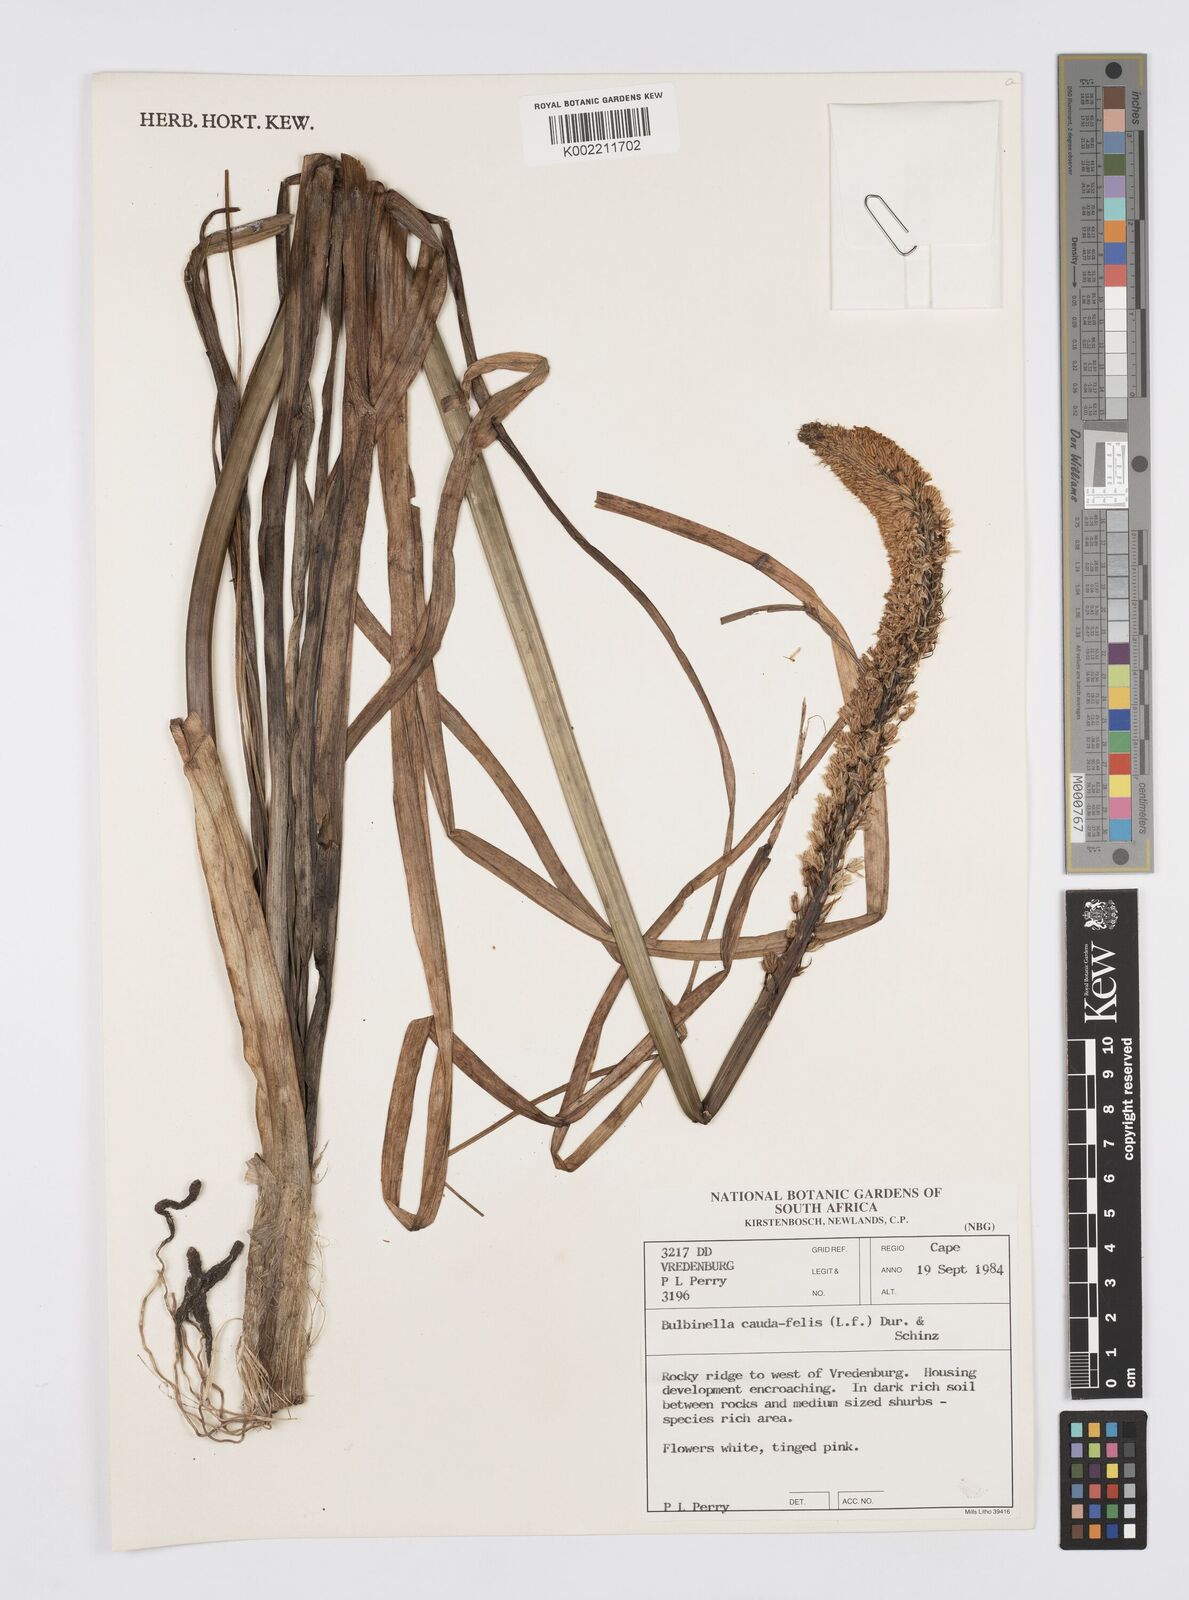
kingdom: Plantae
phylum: Tracheophyta
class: Liliopsida
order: Asparagales
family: Asphodelaceae
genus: Bulbinella
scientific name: Bulbinella cauda-felis
